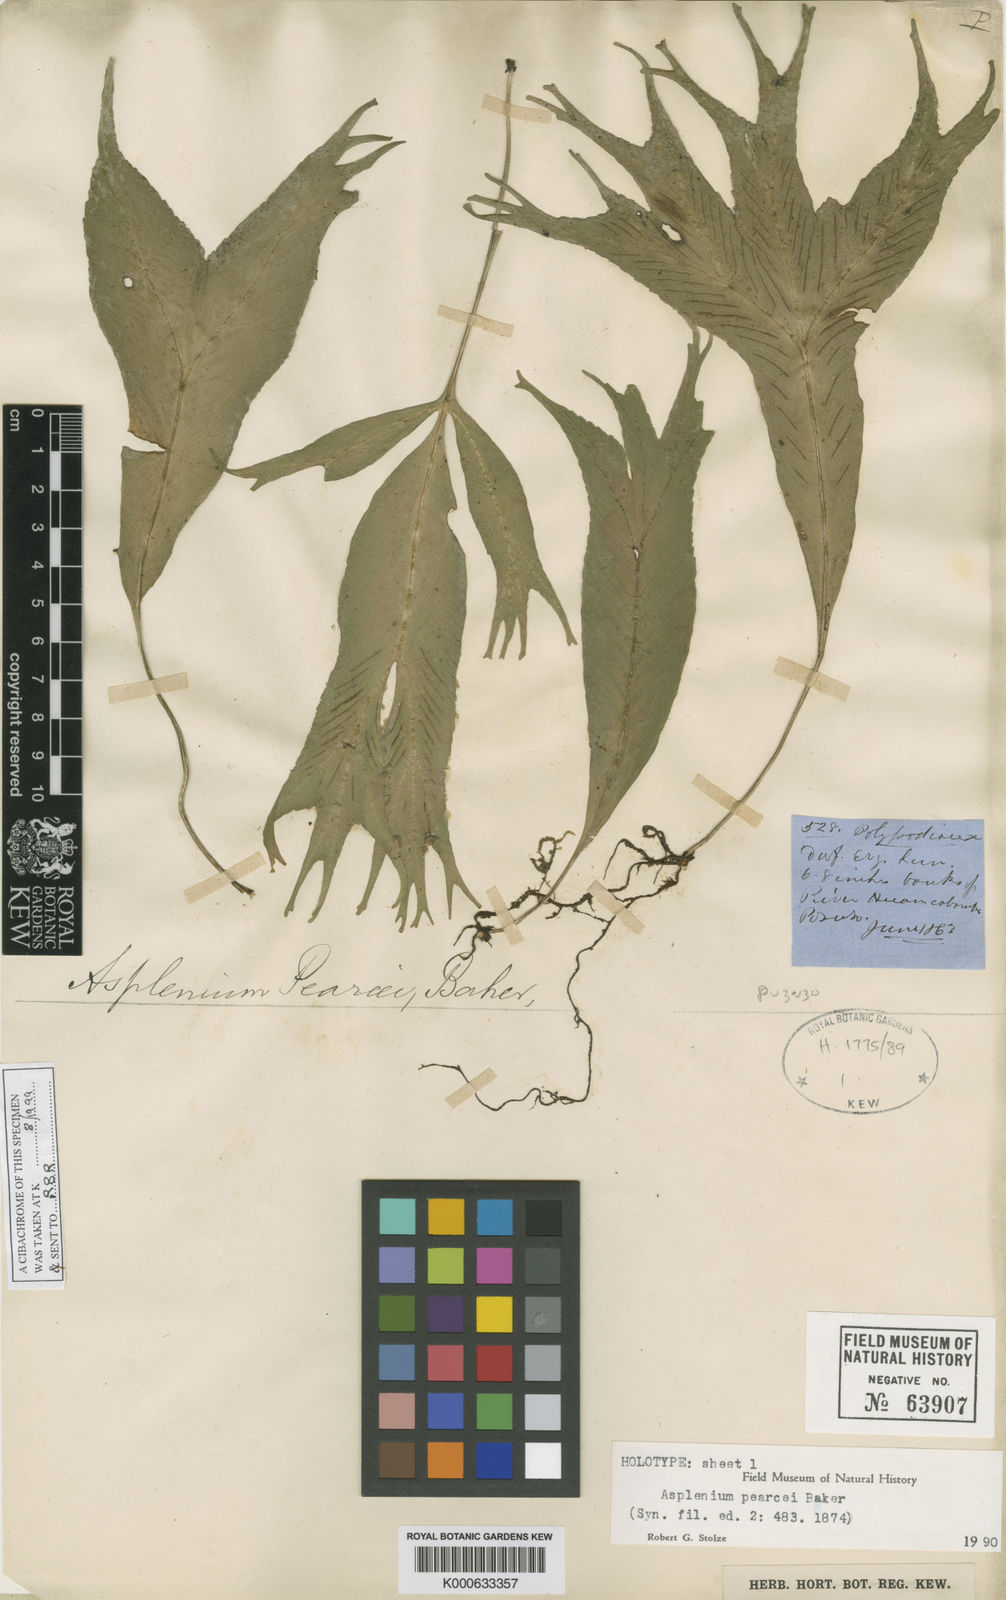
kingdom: Plantae
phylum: Tracheophyta
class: Polypodiopsida
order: Polypodiales
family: Aspleniaceae
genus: Asplenium
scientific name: Asplenium pearcei
